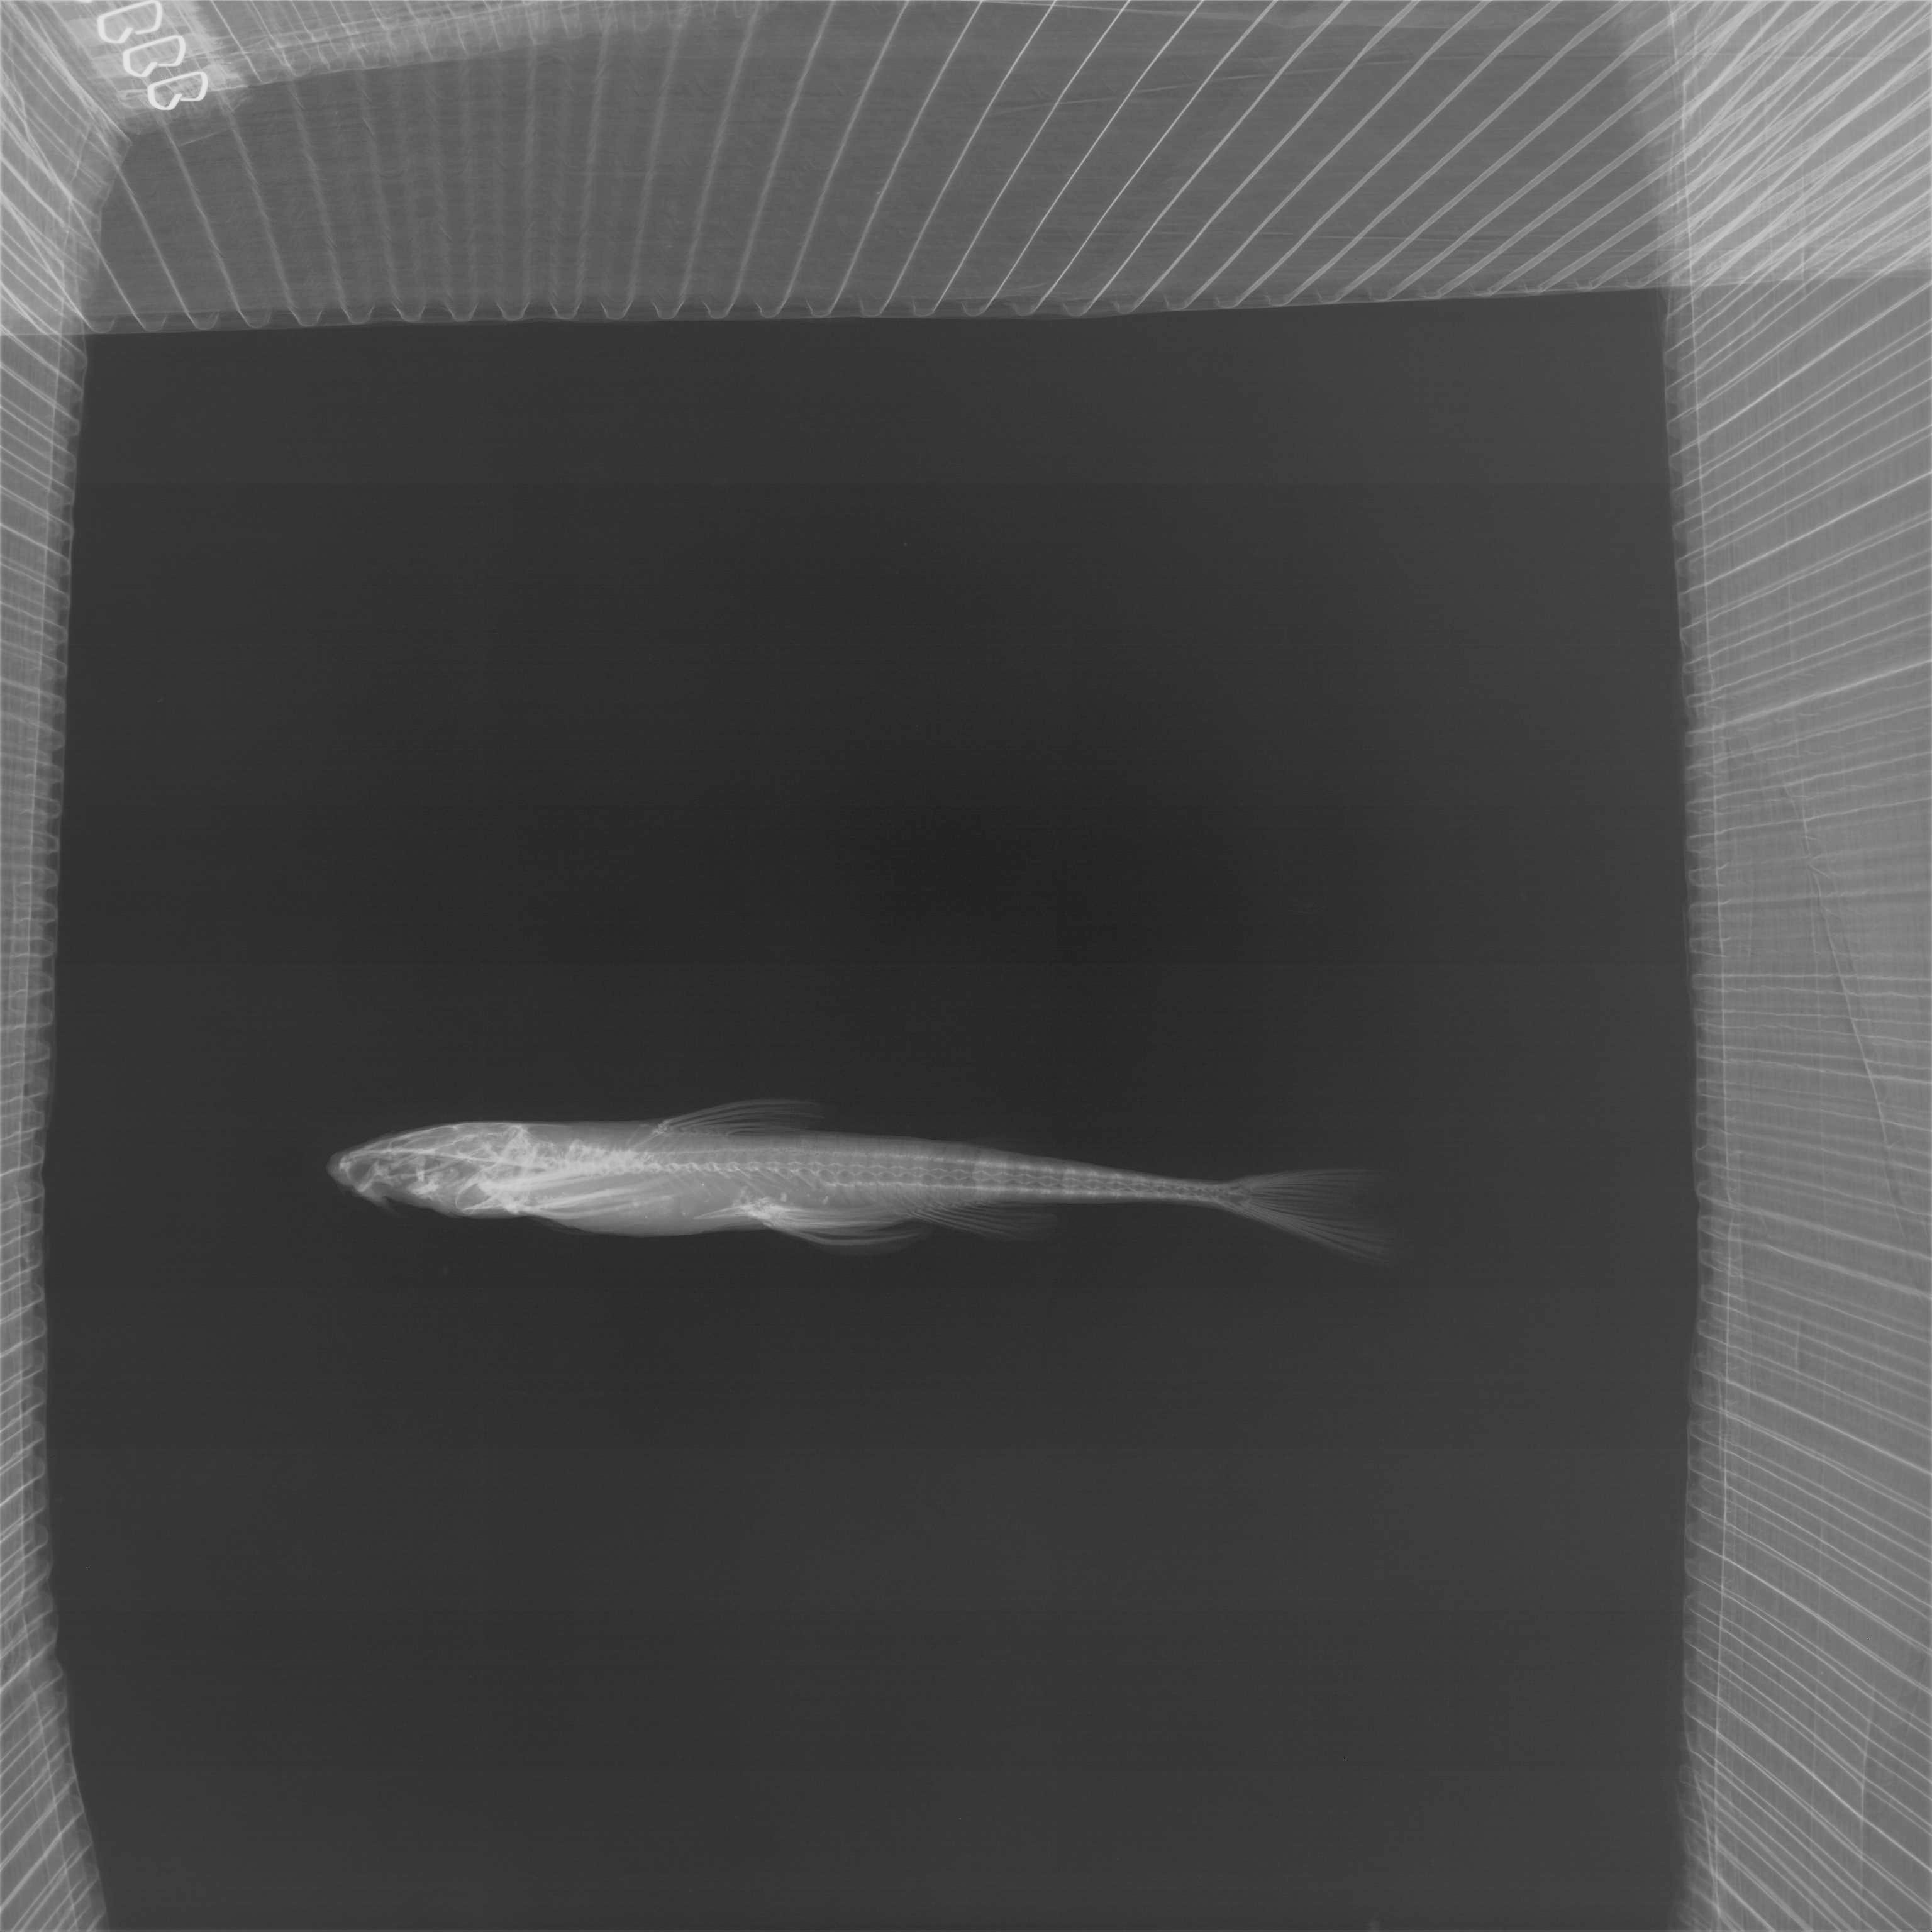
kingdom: Animalia
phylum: Chordata
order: Siluriformes
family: Amphiliidae
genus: Doumea
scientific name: Doumea
